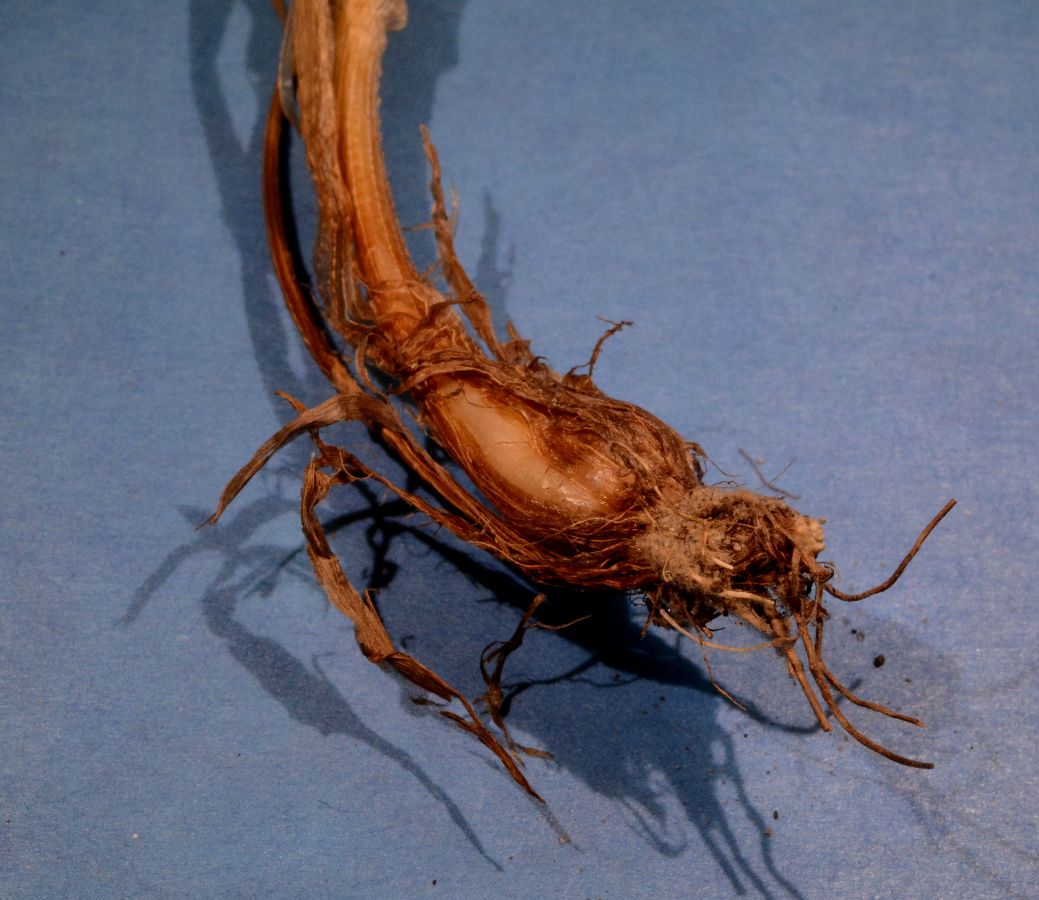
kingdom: Plantae
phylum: Tracheophyta
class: Liliopsida
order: Poales
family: Poaceae
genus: Phleum
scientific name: Phleum alpinum
